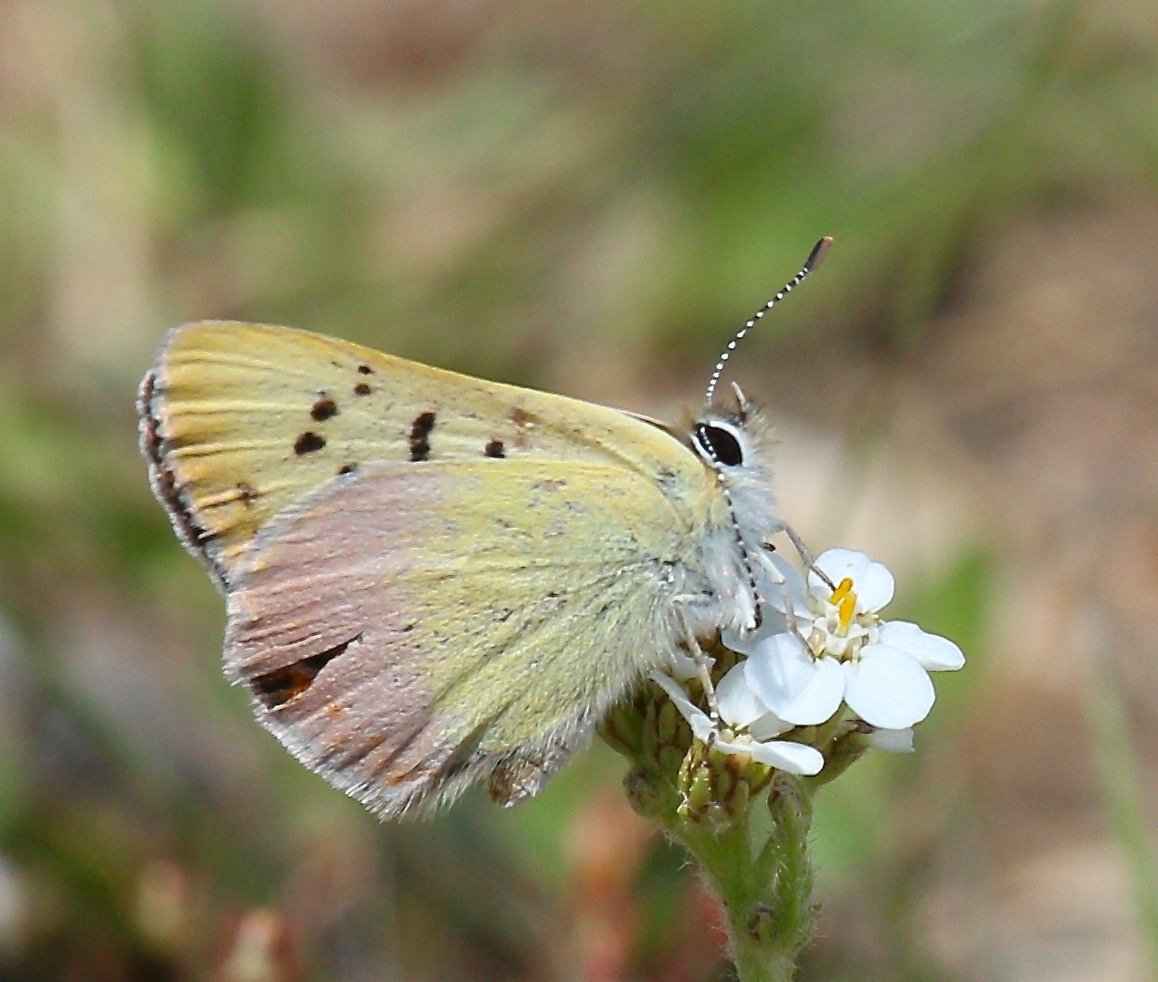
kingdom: Animalia
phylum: Arthropoda
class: Insecta
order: Lepidoptera
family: Lycaenidae
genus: Lycaena
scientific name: Lycaena nivalis
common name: Lilac-bordered Copper
